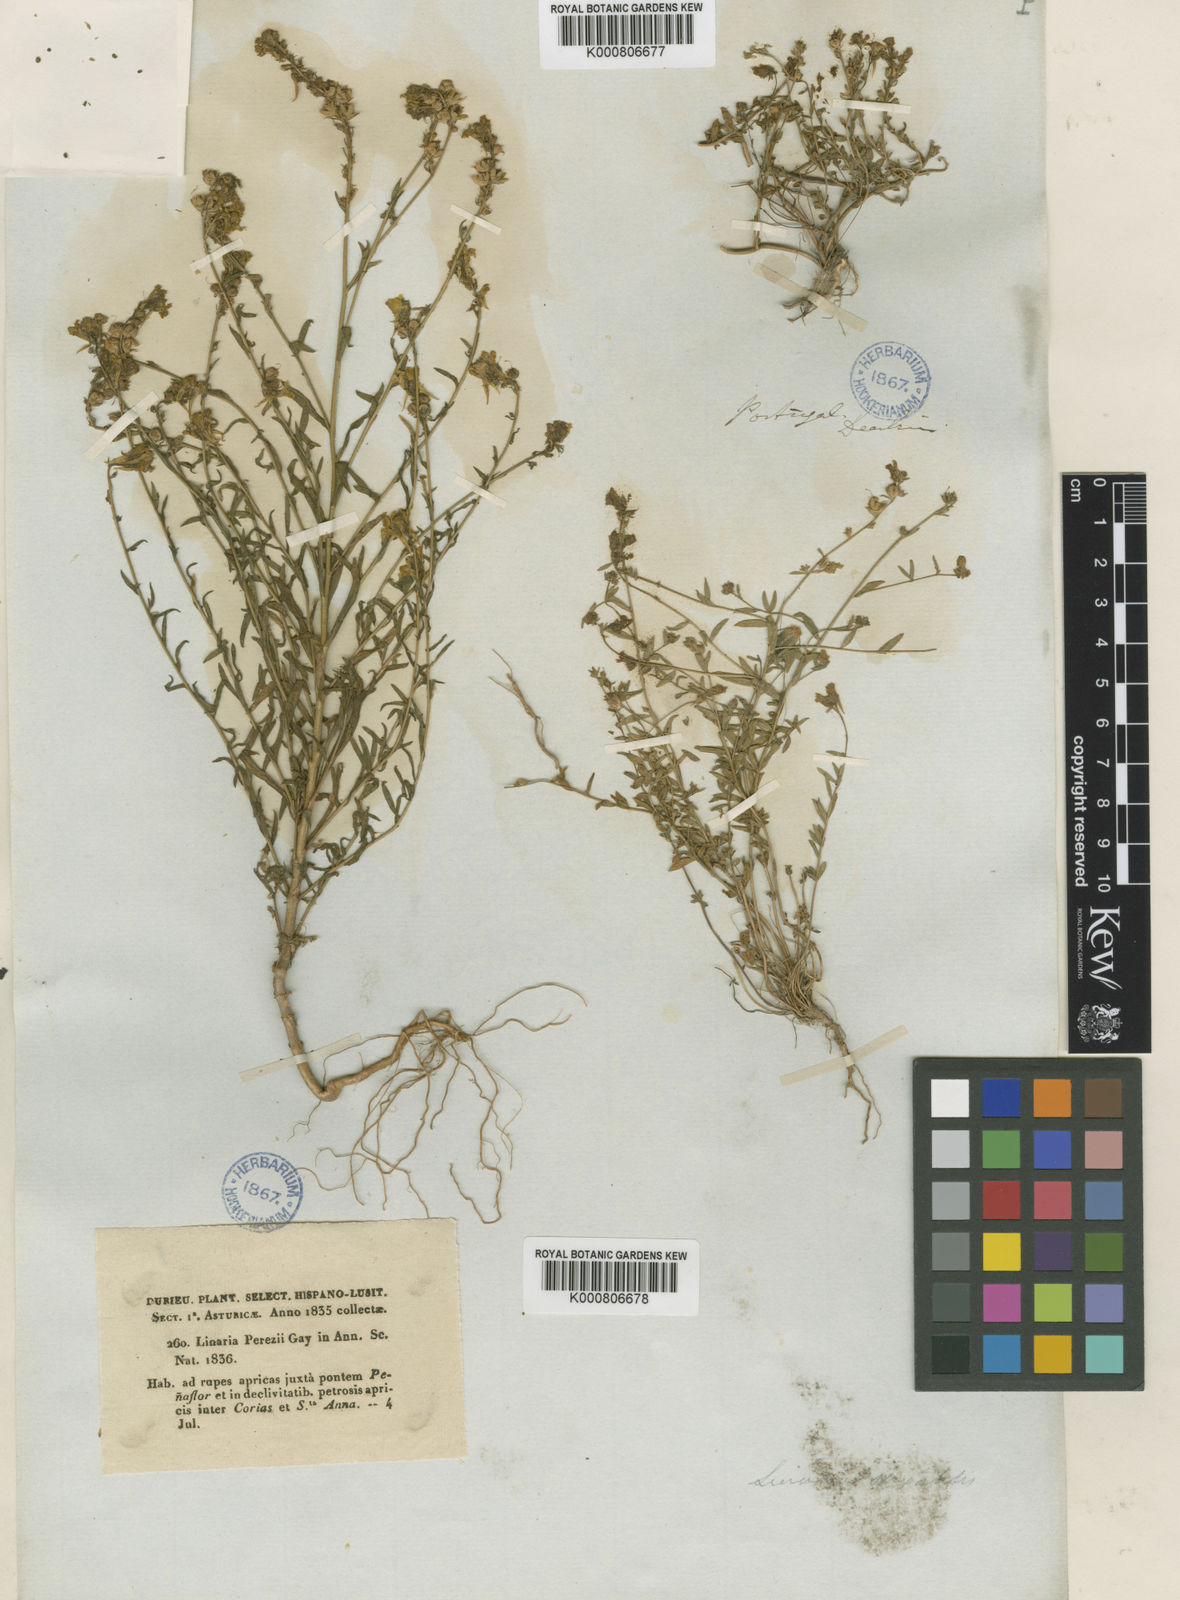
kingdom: Plantae
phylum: Tracheophyta
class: Magnoliopsida
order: Lamiales
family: Plantaginaceae
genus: Linaria
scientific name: Linaria saxatilis
